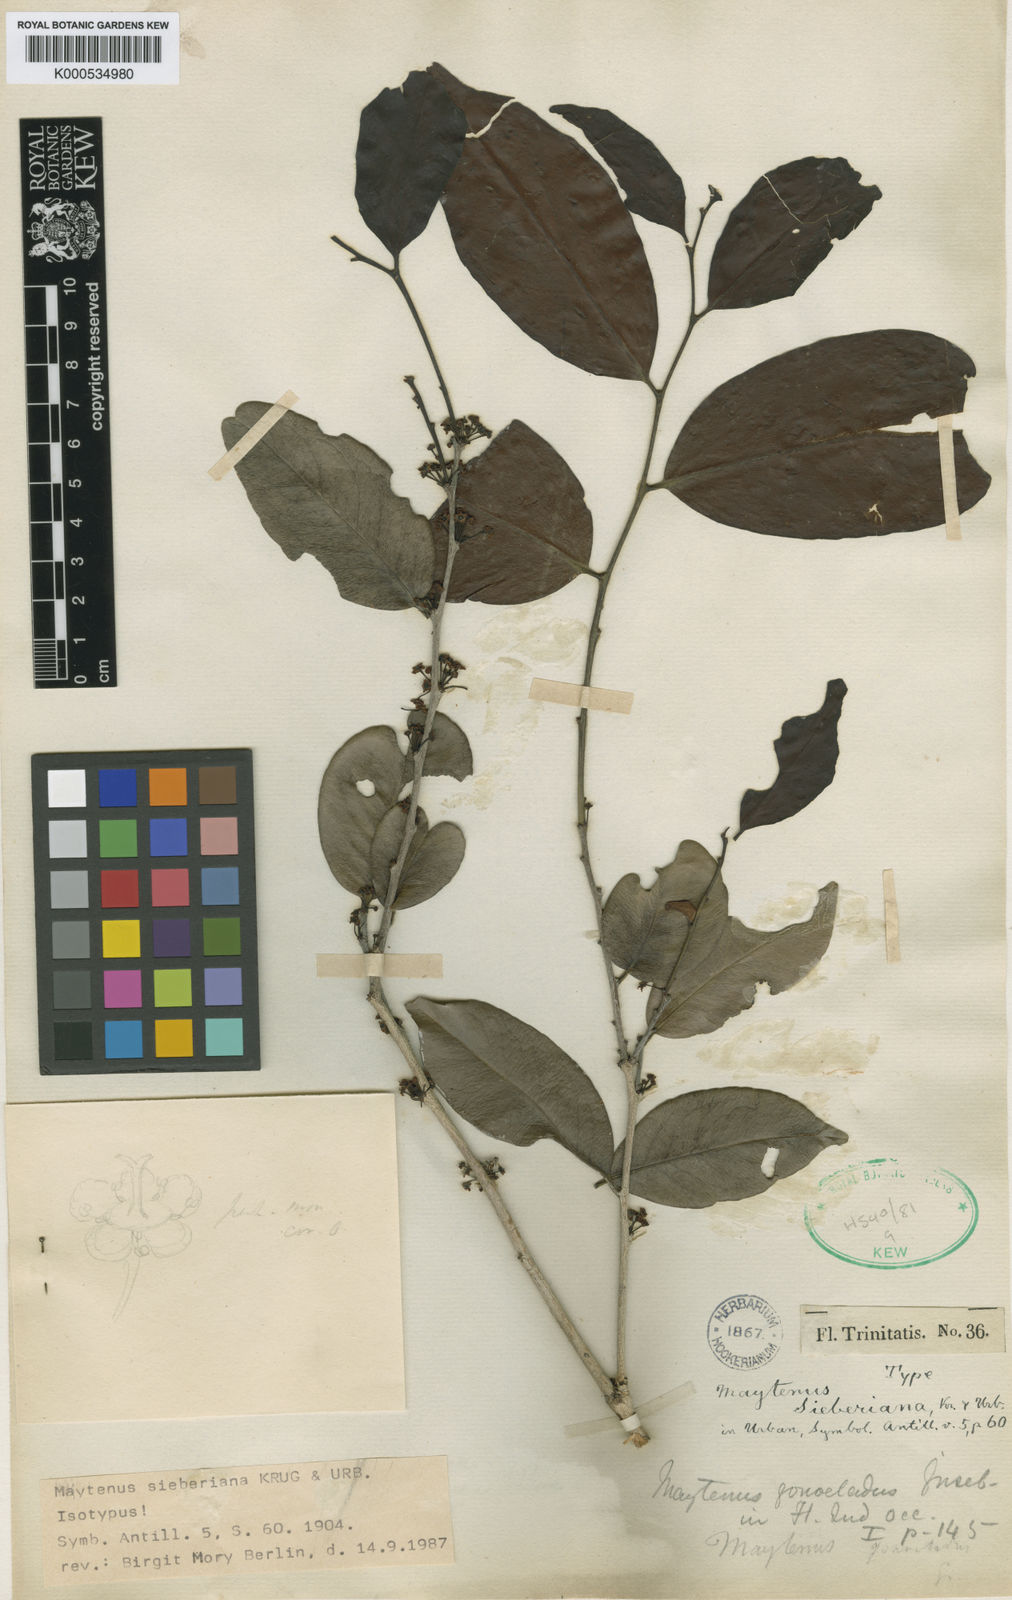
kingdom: Plantae
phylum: Tracheophyta
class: Magnoliopsida
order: Celastrales
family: Celastraceae
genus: Monteverdia
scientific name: Monteverdia sieberiana
